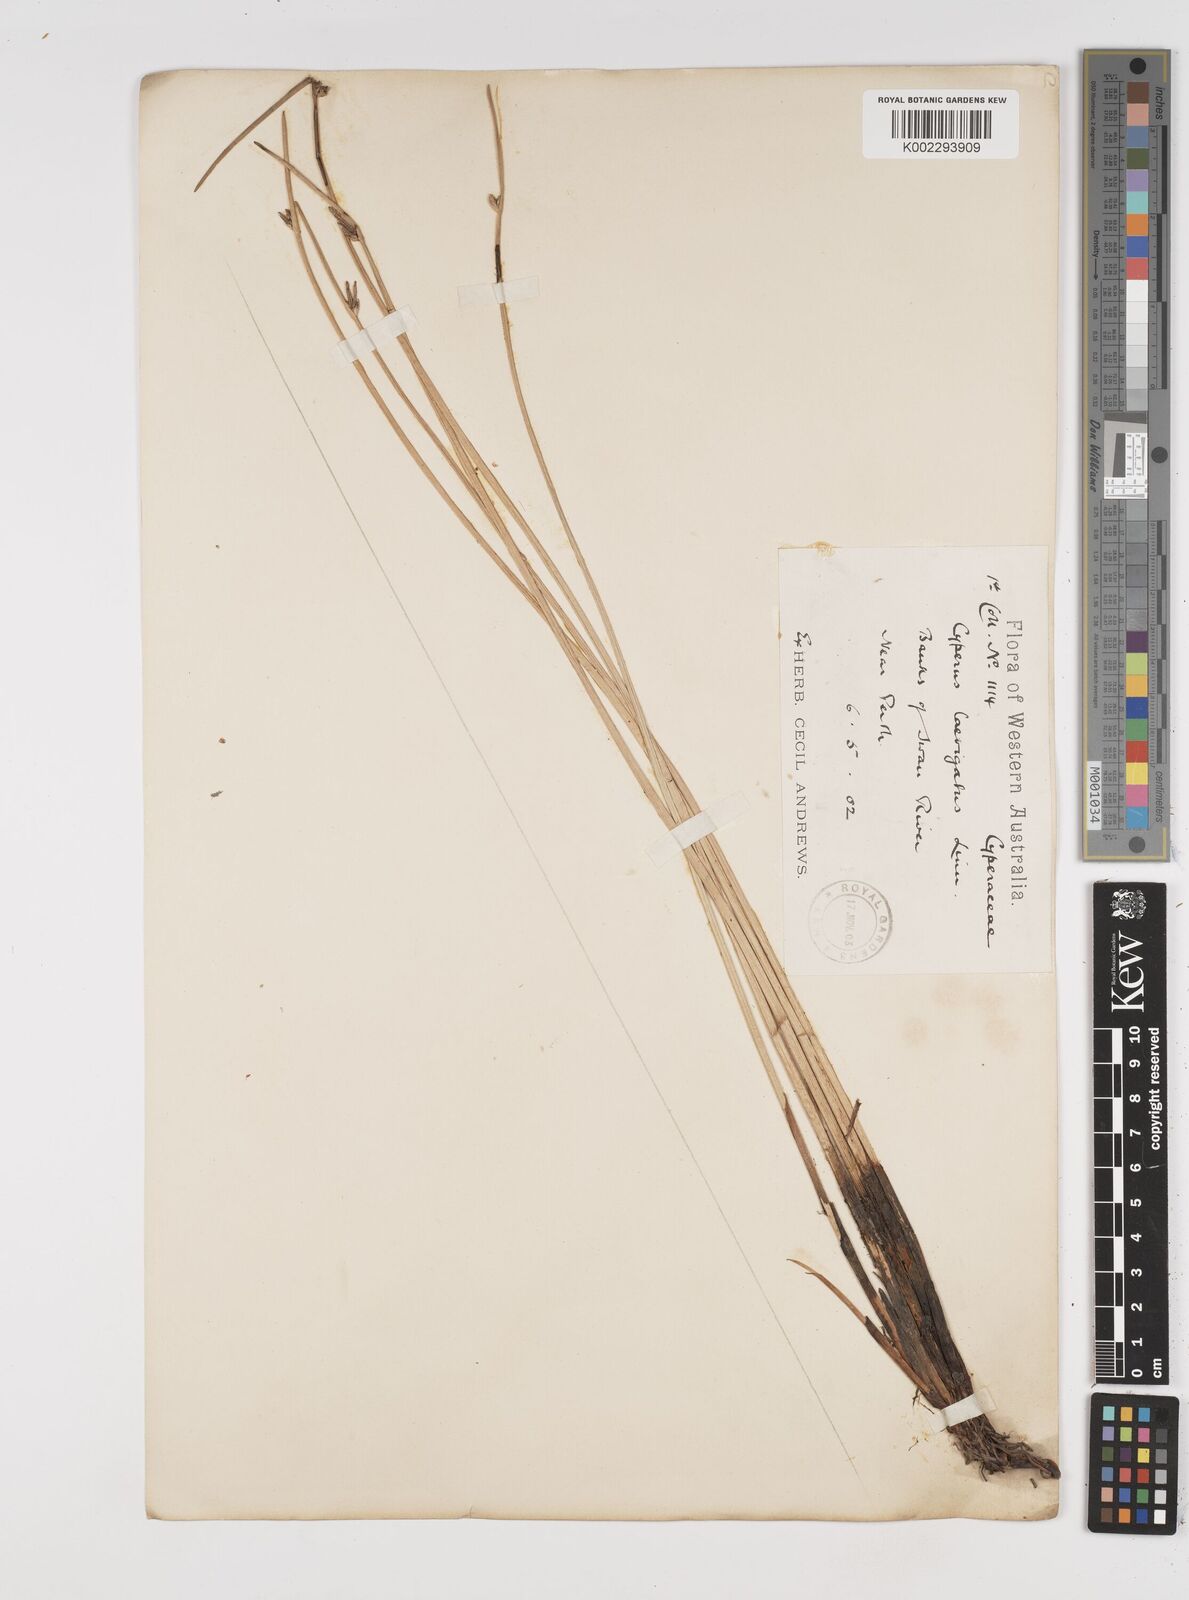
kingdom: Plantae
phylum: Tracheophyta
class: Liliopsida
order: Poales
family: Cyperaceae
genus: Cyperus
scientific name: Cyperus laevigatus
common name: Smooth flat sedge
